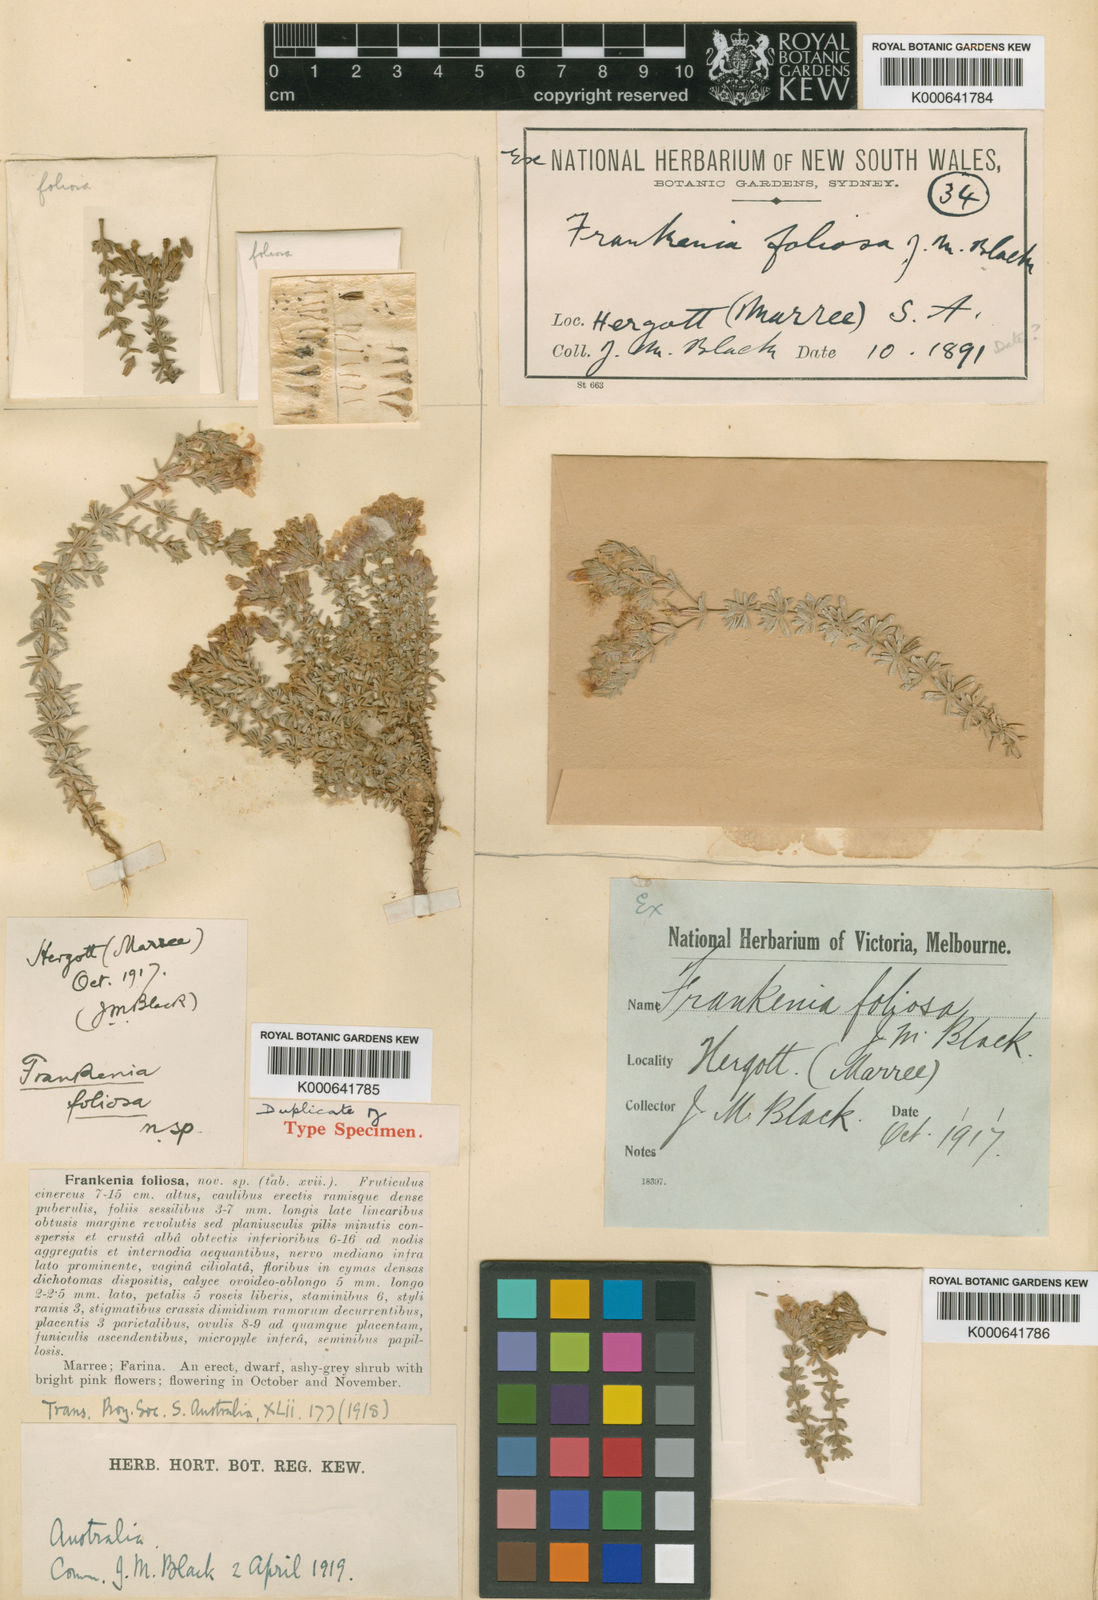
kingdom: Plantae
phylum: Tracheophyta
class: Magnoliopsida
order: Caryophyllales
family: Frankeniaceae
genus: Frankenia
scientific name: Frankenia foliosa
